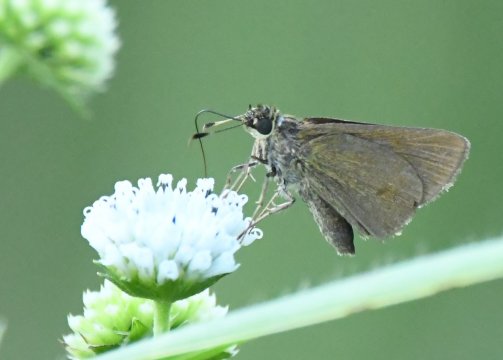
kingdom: Animalia
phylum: Arthropoda
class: Insecta
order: Lepidoptera
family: Hesperiidae
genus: Callimormus
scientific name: Callimormus
